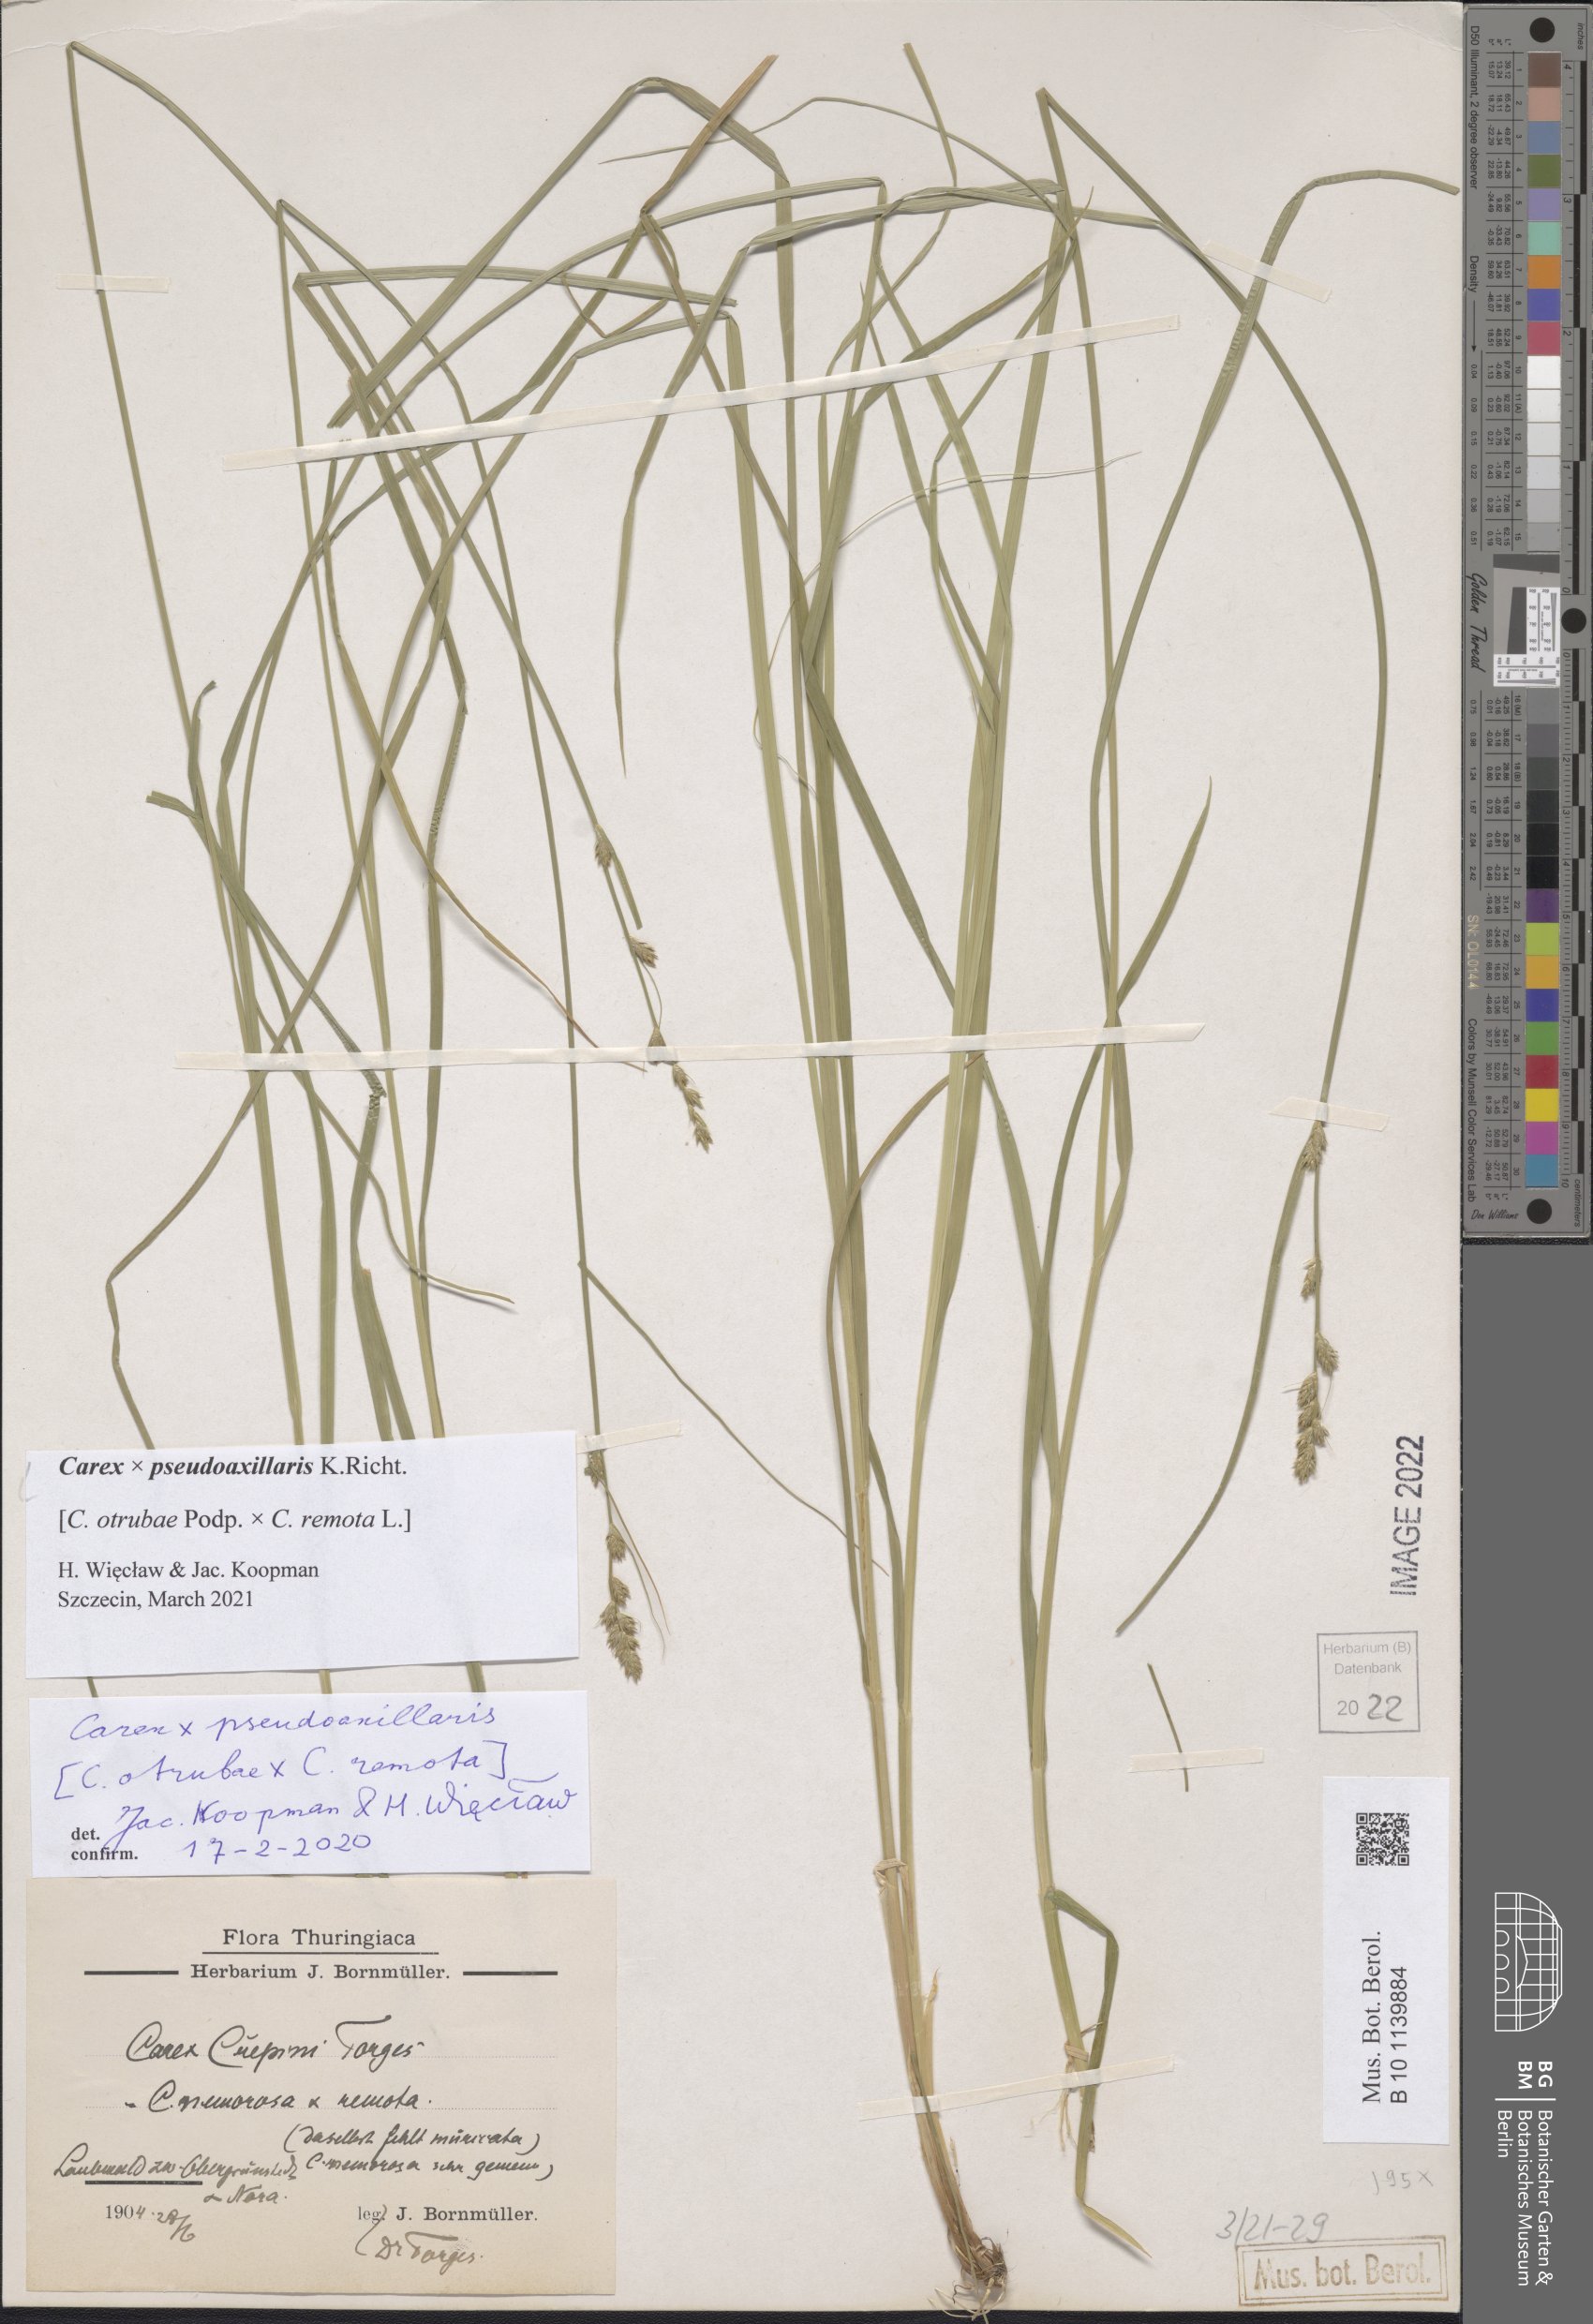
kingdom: Plantae
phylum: Tracheophyta
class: Liliopsida
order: Poales
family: Cyperaceae
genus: Carex
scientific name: Carex pseudoaxillaris
